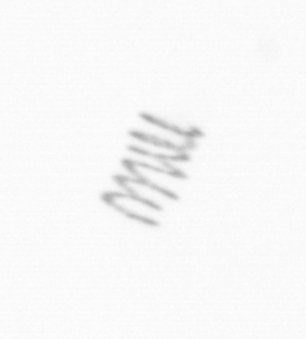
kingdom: Chromista
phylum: Ochrophyta
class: Bacillariophyceae
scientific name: Bacillariophyceae
